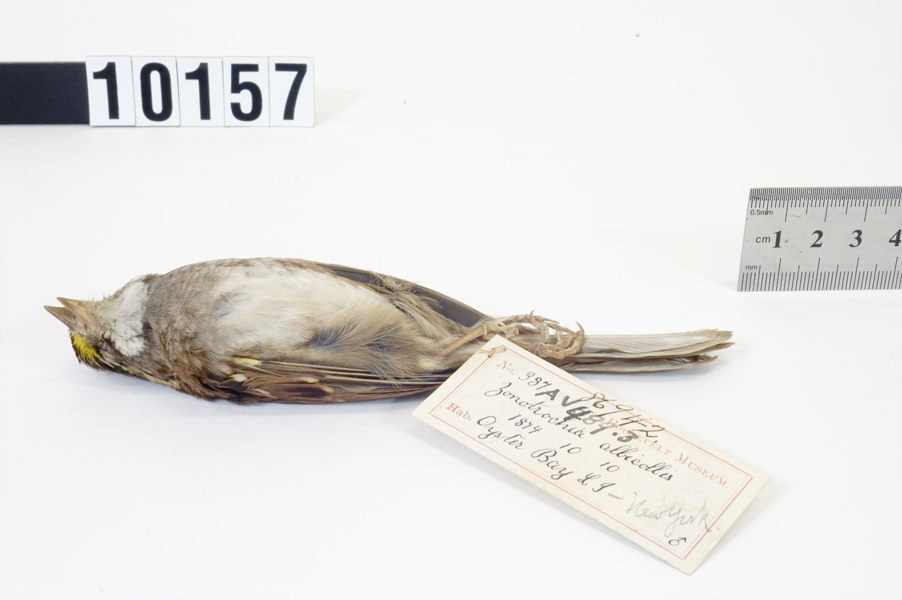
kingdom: Animalia
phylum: Chordata
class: Aves
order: Passeriformes
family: Passerellidae
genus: Zonotrichia
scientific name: Zonotrichia albicollis
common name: White-throated sparrow
